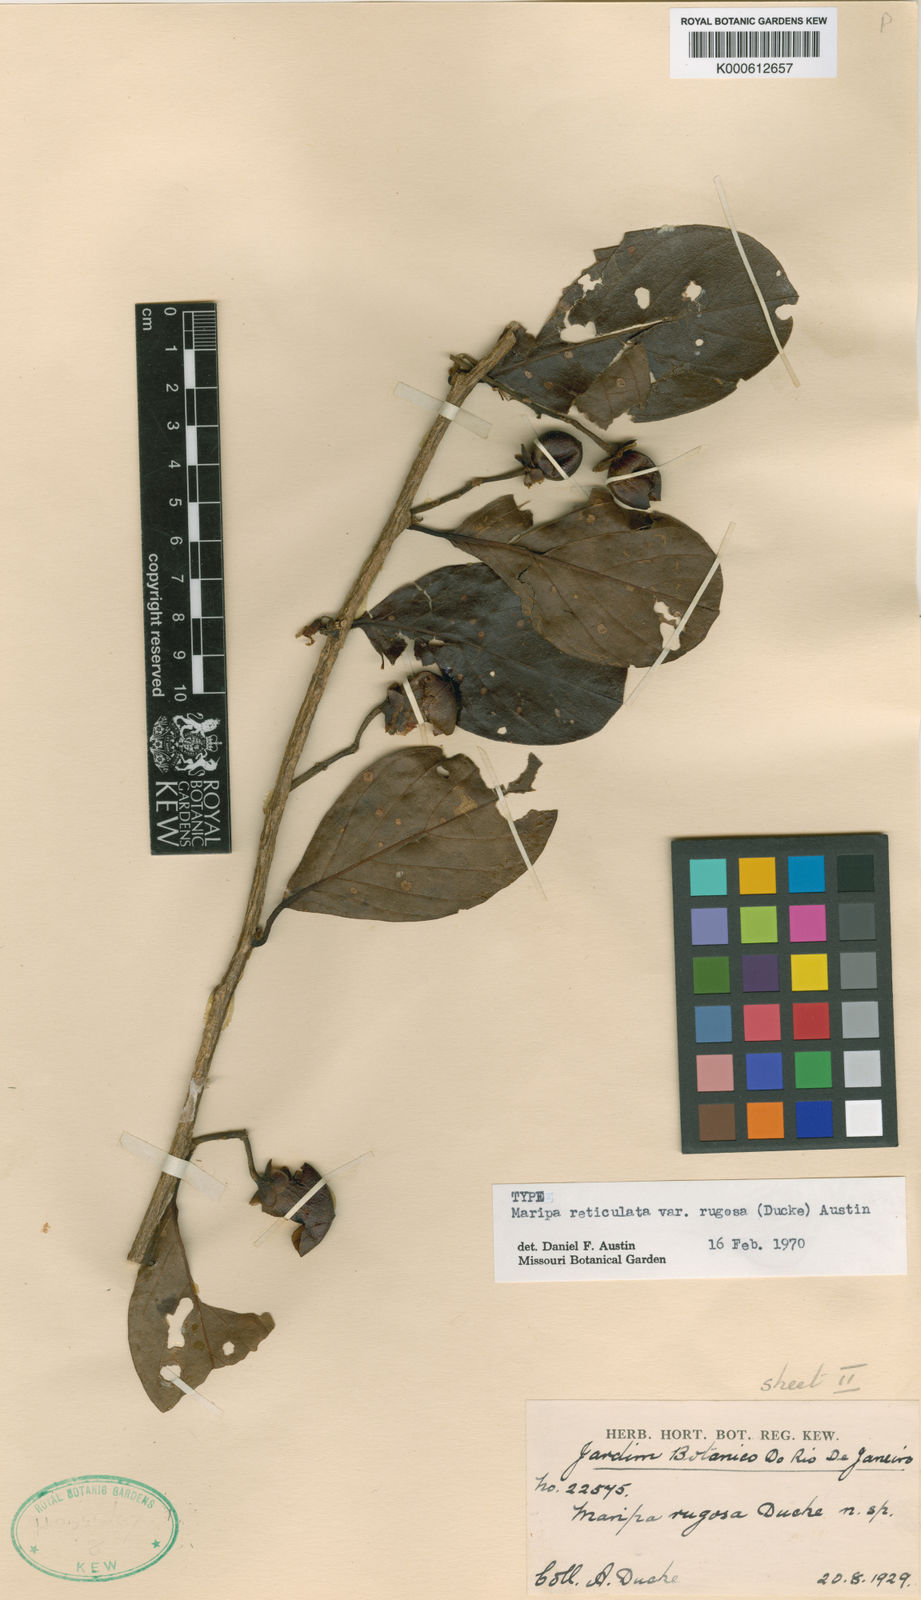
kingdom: Plantae
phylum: Tracheophyta
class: Magnoliopsida
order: Solanales
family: Convolvulaceae
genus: Maripa
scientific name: Maripa reticulata
